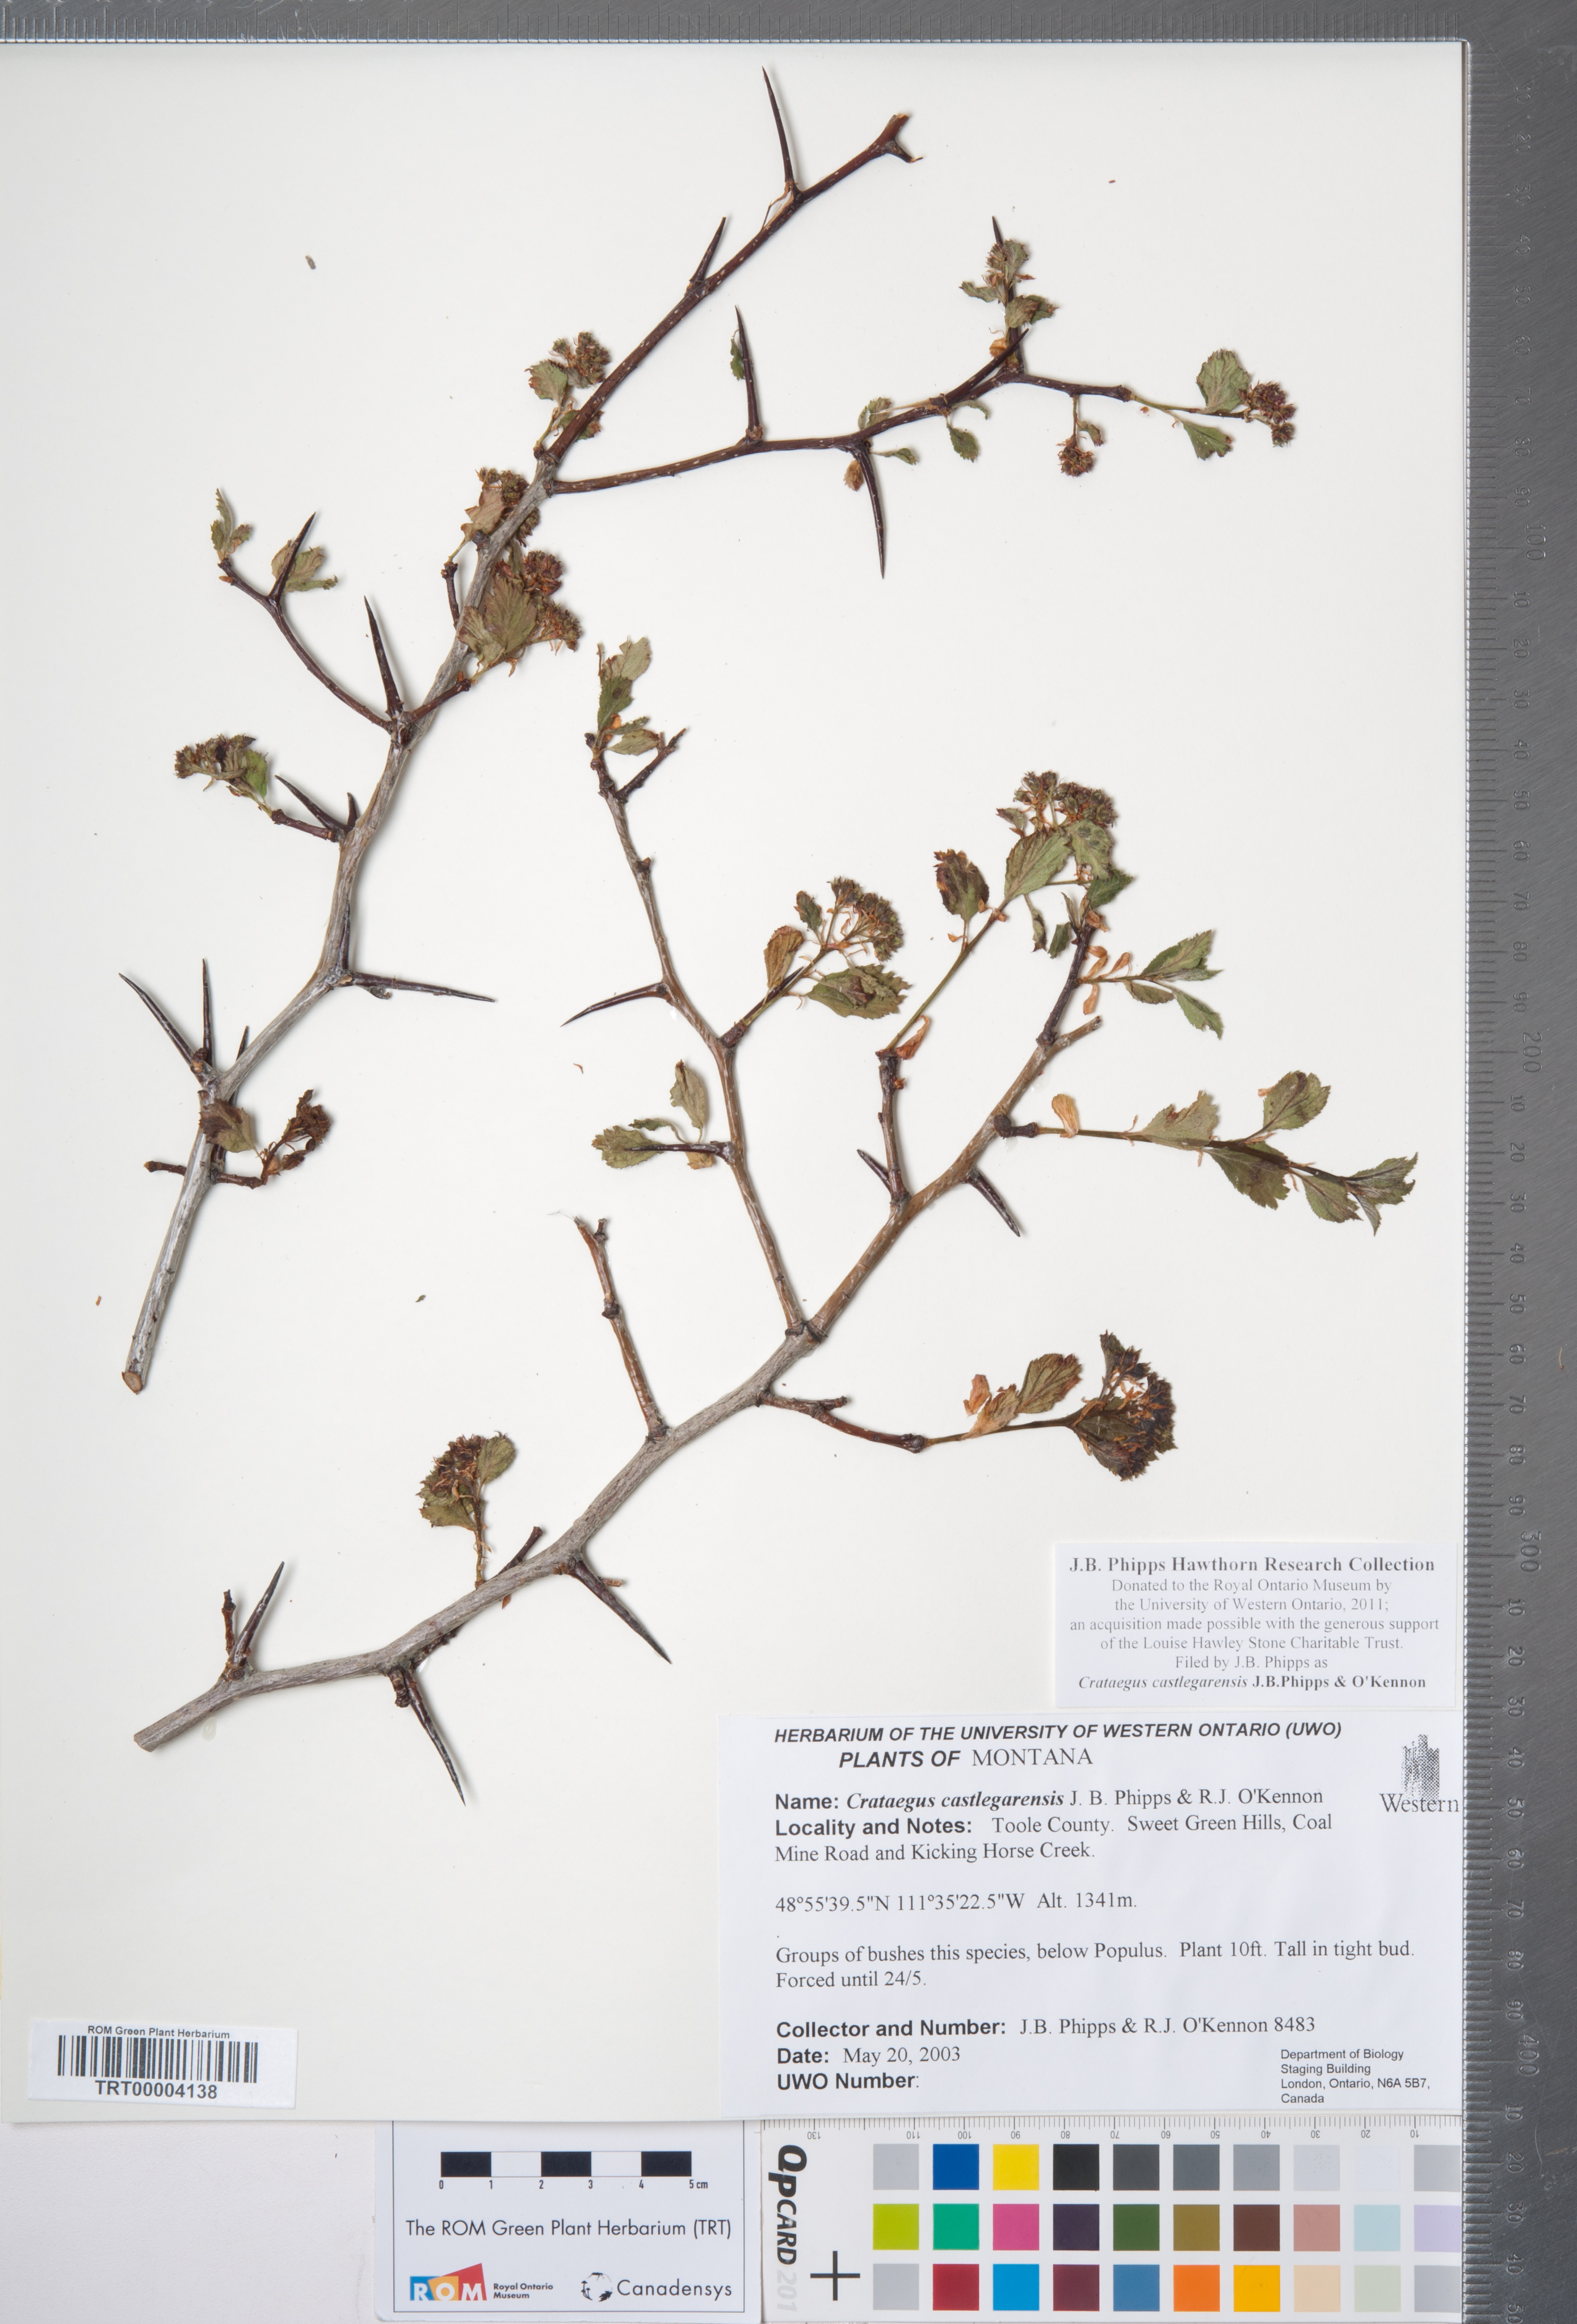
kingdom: Plantae
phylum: Tracheophyta
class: Magnoliopsida
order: Rosales
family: Rosaceae
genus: Crataegus
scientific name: Crataegus castlegarensis
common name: Castlegar hawthorn
